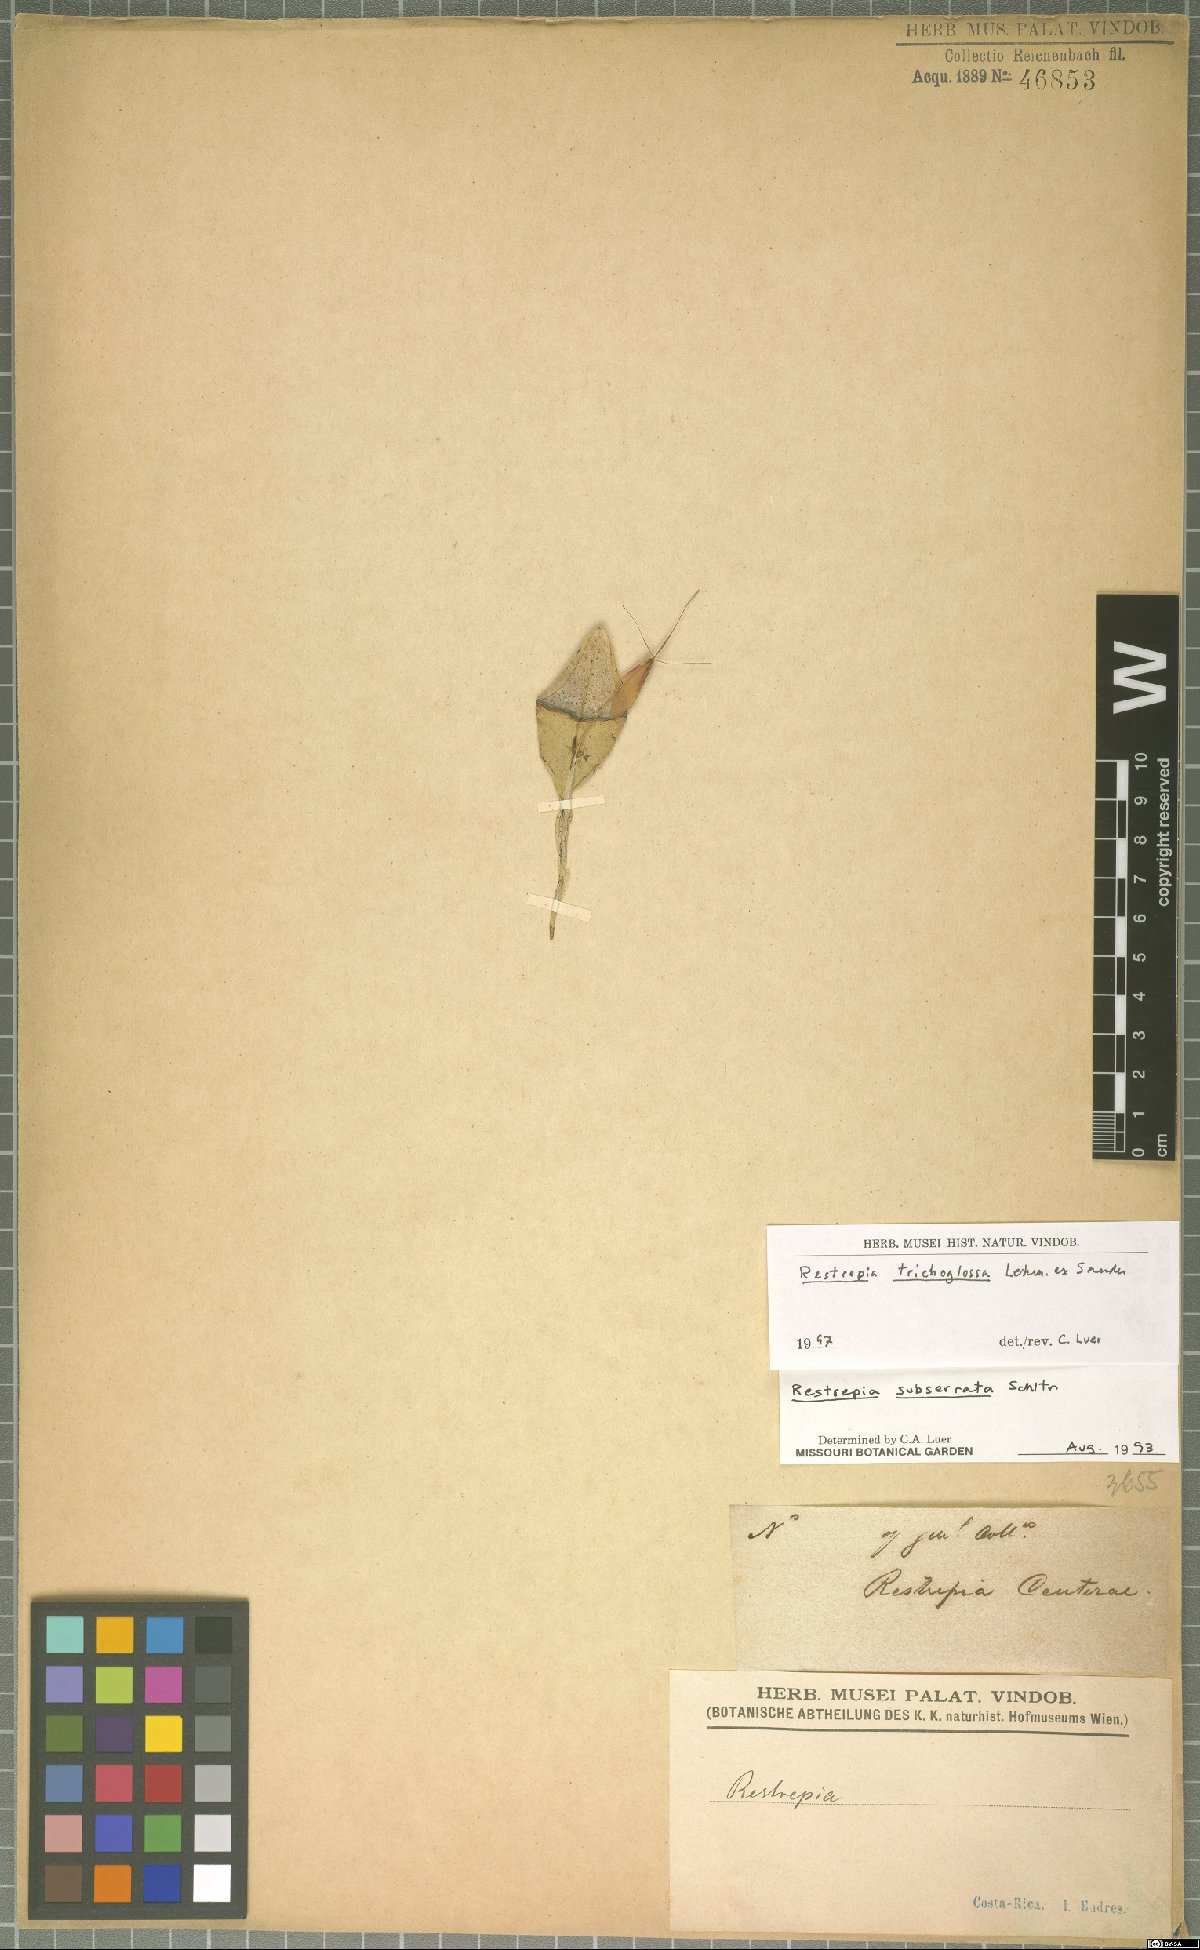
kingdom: Plantae
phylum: Tracheophyta
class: Liliopsida
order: Asparagales
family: Orchidaceae
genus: Restrepia
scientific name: Restrepia trichoglossa
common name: Hairy tongued restrepia
